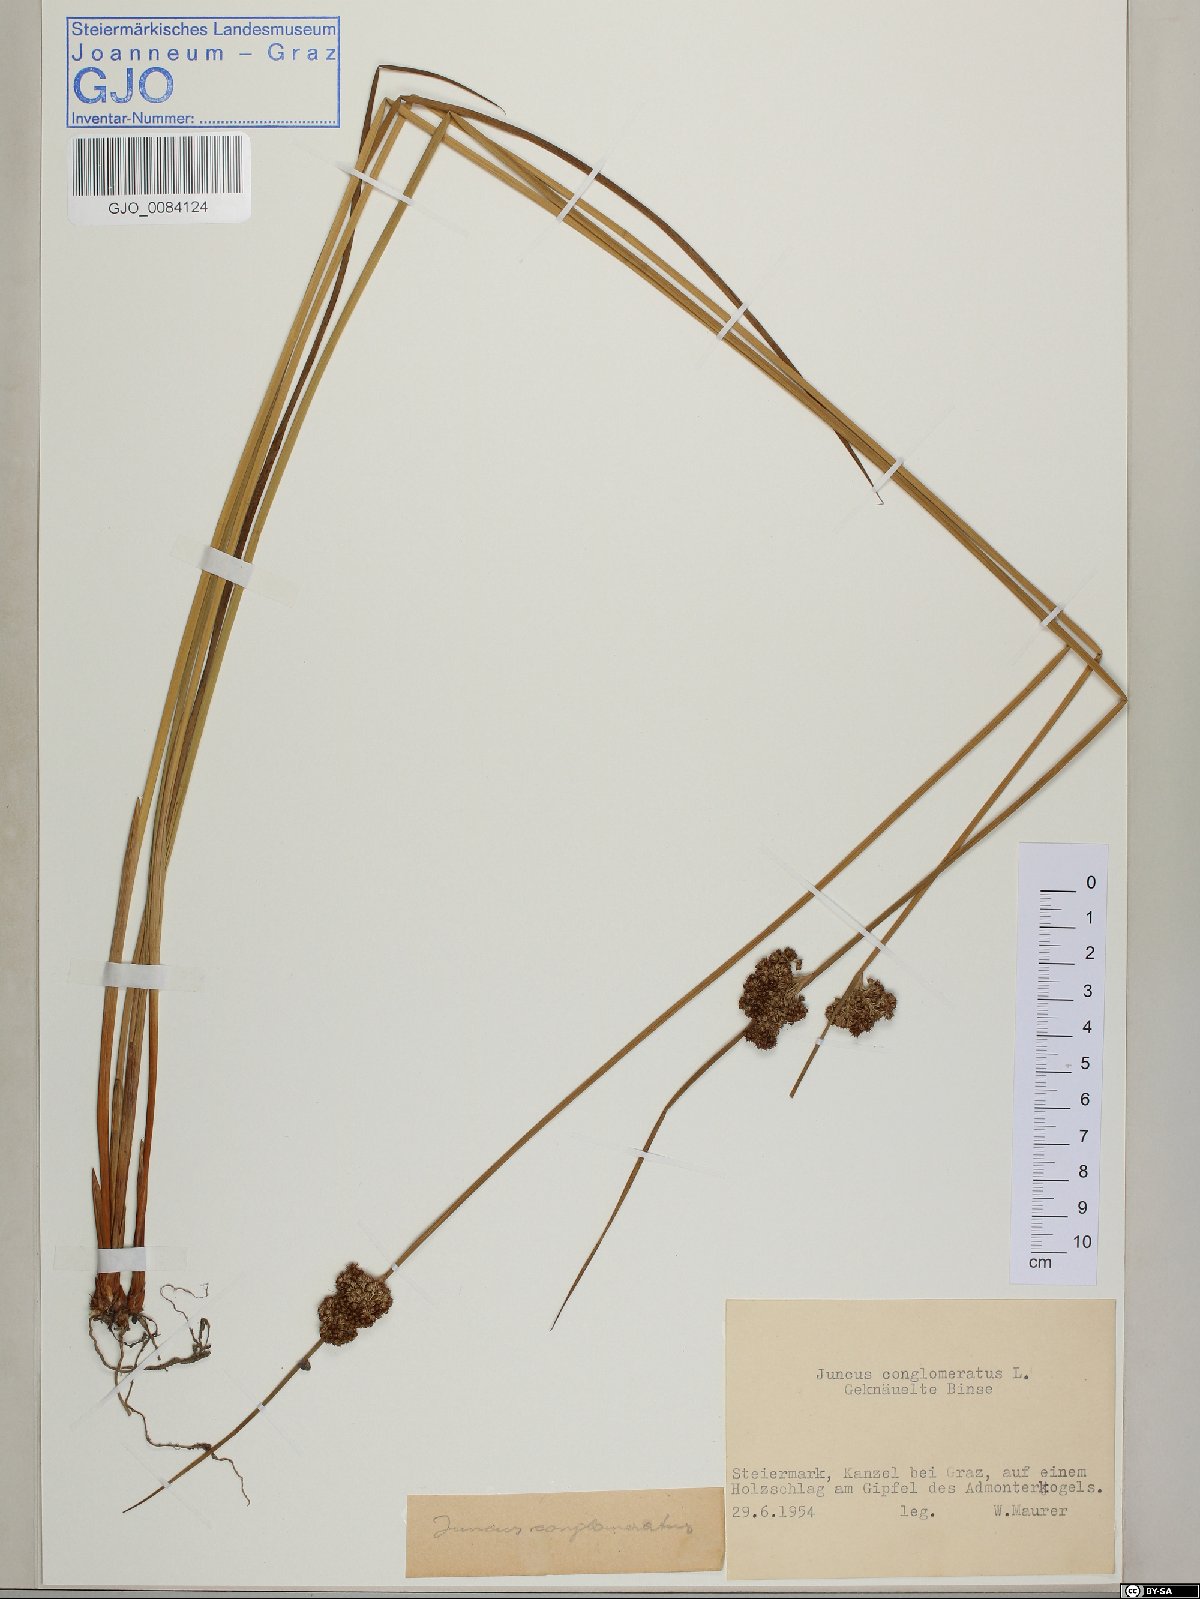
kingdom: Plantae
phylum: Tracheophyta
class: Liliopsida
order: Poales
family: Juncaceae
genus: Juncus
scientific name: Juncus conglomeratus
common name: Compact rush
